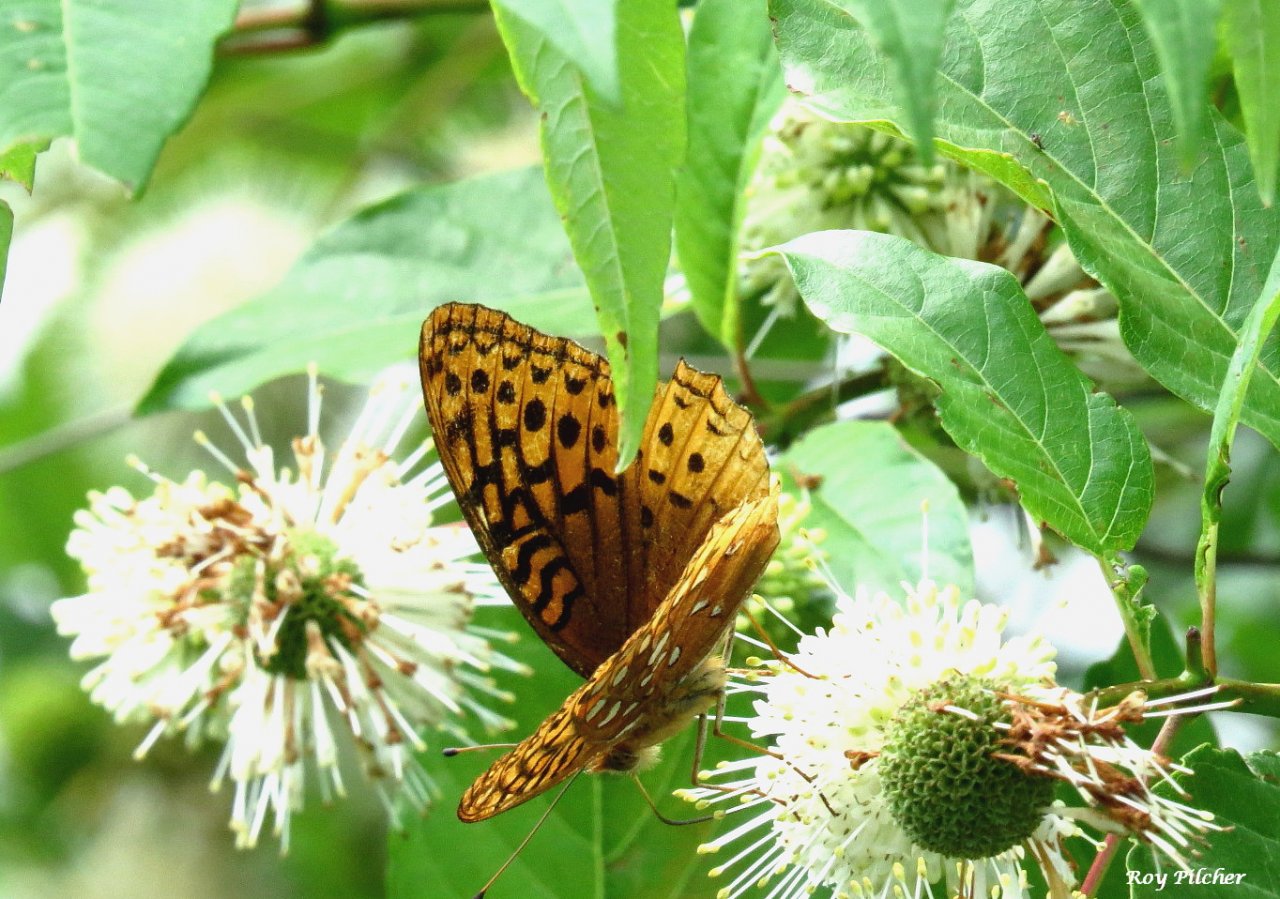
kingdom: Animalia
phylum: Arthropoda
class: Insecta
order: Lepidoptera
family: Nymphalidae
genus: Speyeria
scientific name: Speyeria aphrodite
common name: Aphrodite Fritillary
